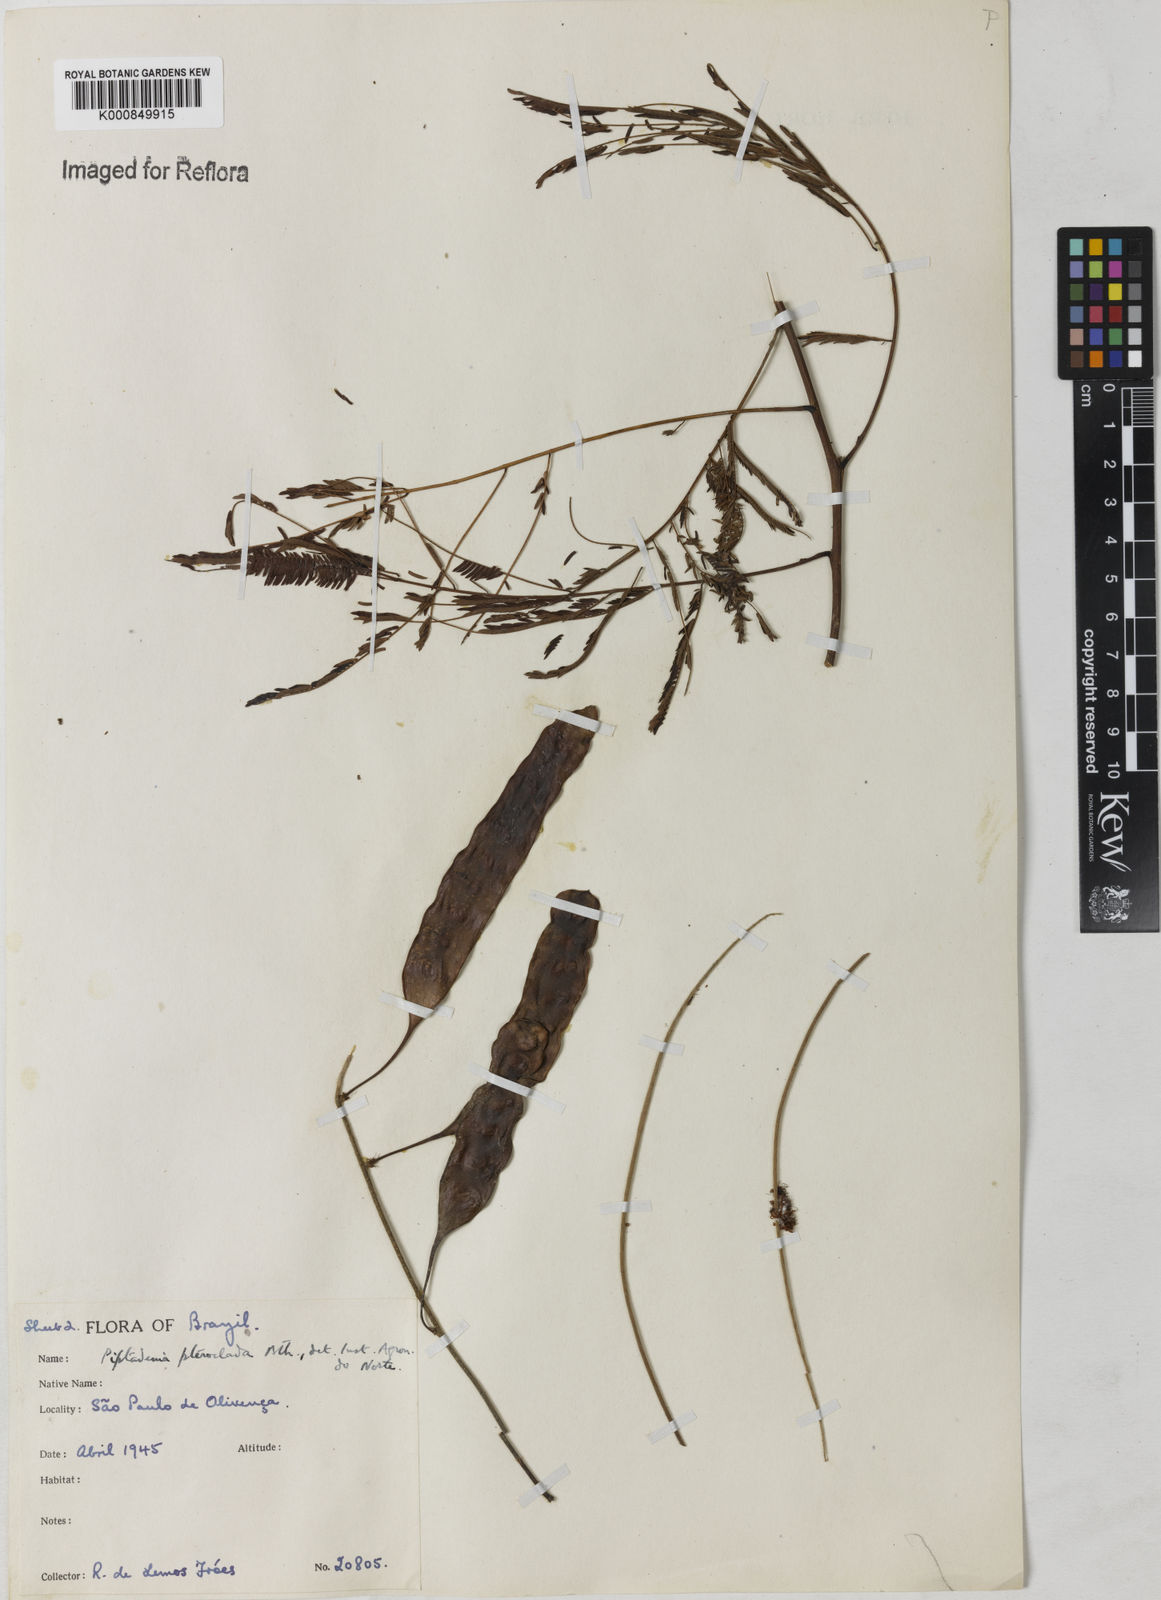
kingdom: Plantae
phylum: Tracheophyta
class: Magnoliopsida
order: Fabales
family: Fabaceae
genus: Piptadenia
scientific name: Piptadenia pteroclada
